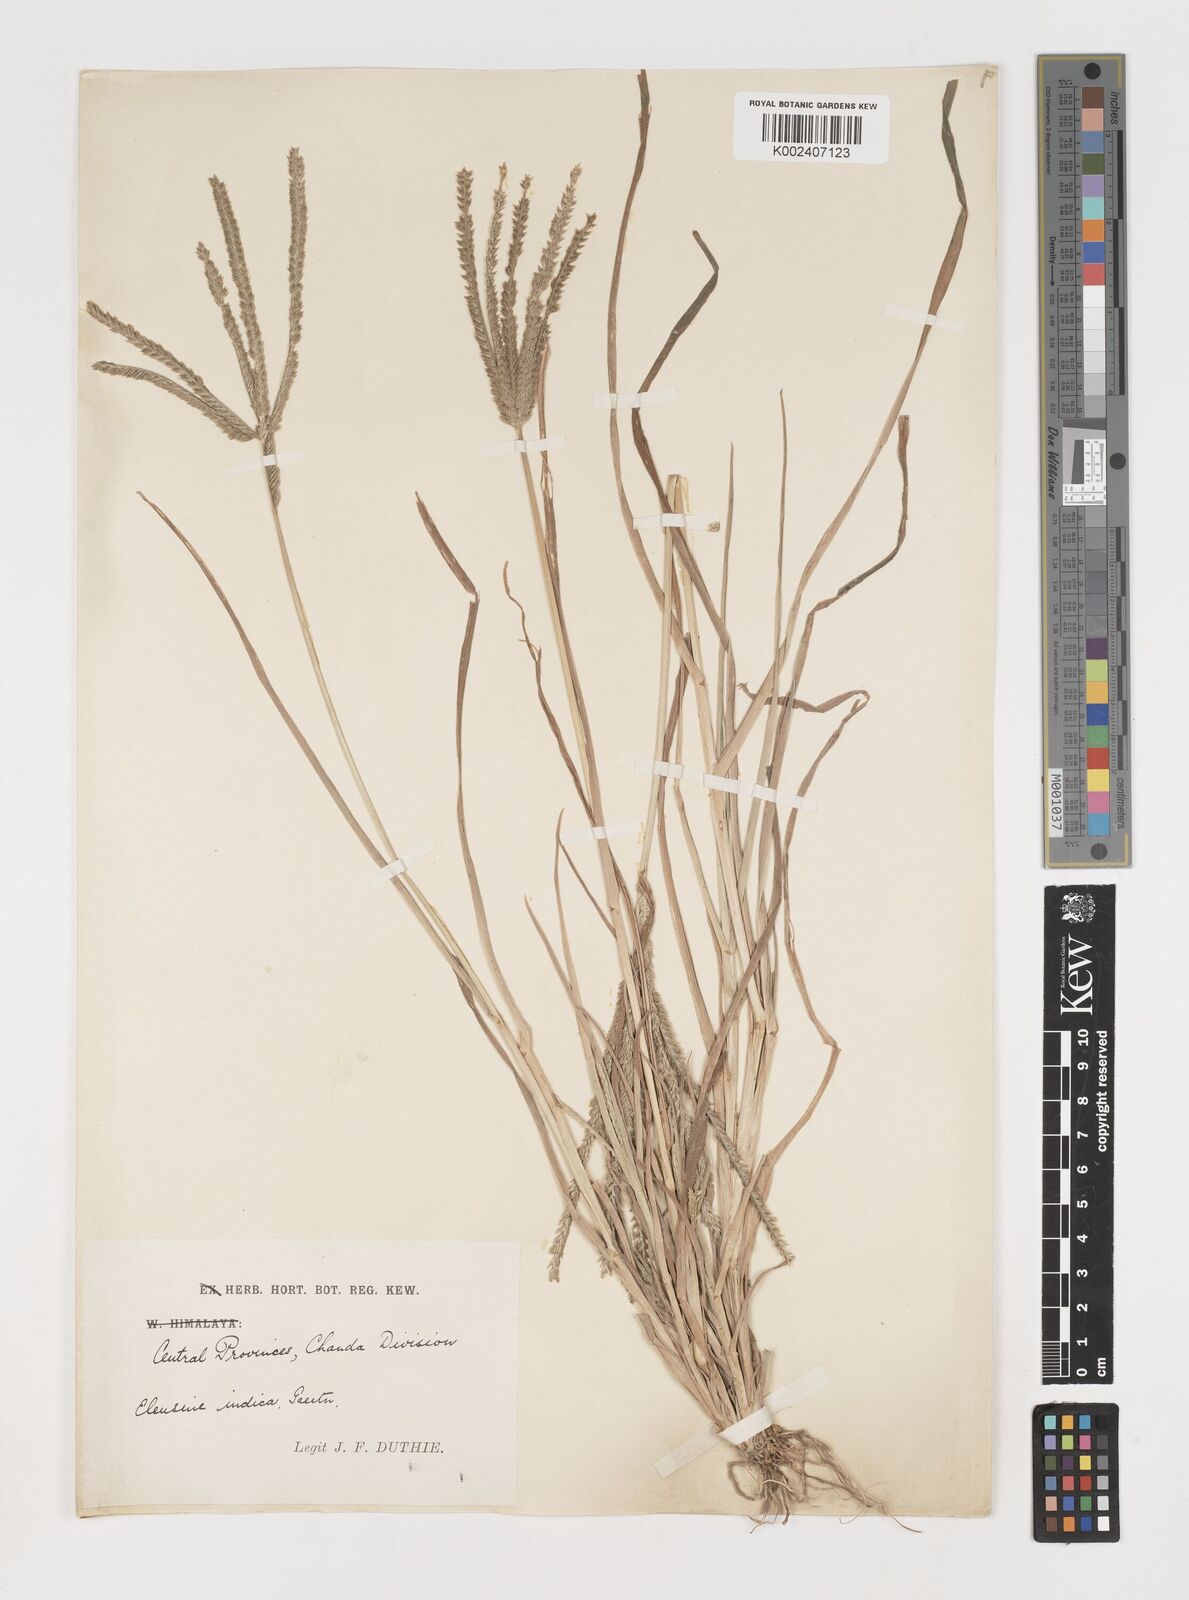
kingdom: Plantae
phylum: Tracheophyta
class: Liliopsida
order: Poales
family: Poaceae
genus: Eleusine
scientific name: Eleusine indica
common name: Yard-grass
